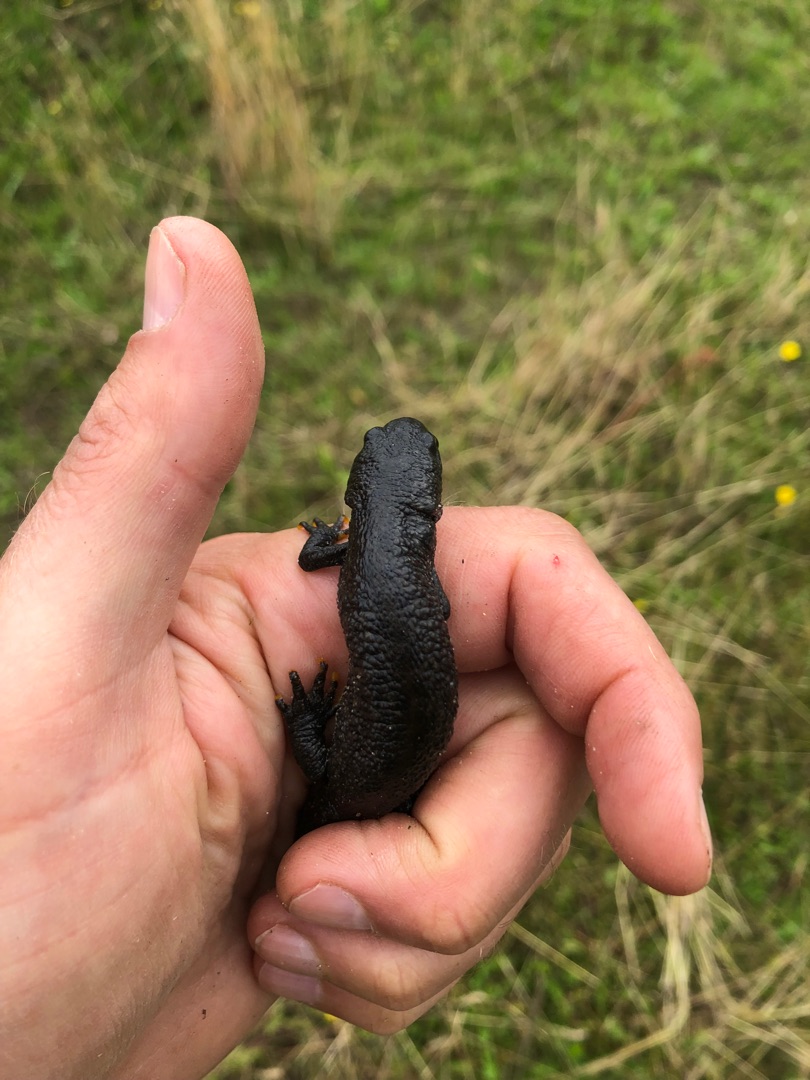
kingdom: Animalia
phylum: Chordata
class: Amphibia
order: Caudata
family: Salamandridae
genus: Triturus
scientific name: Triturus cristatus
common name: Stor vandsalamander
